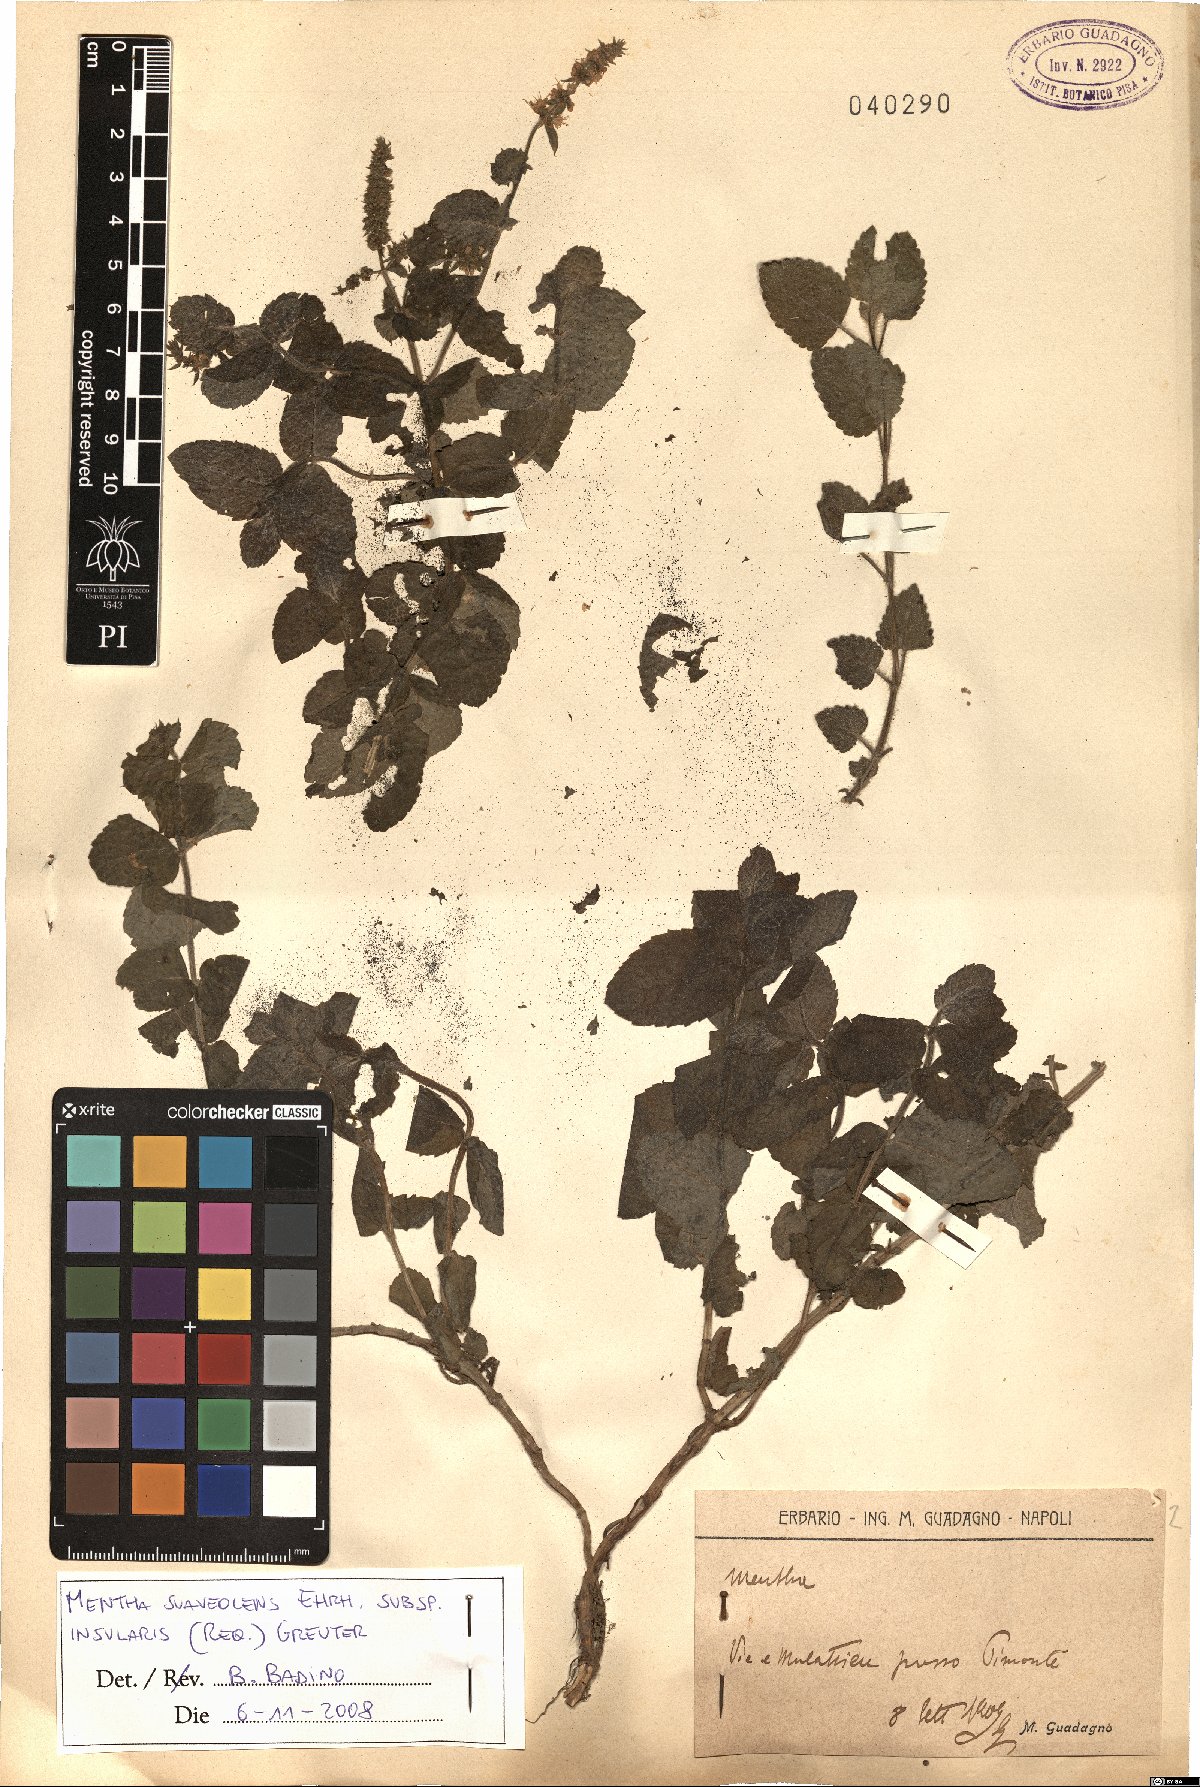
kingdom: Plantae
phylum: Tracheophyta
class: Magnoliopsida
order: Lamiales
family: Lamiaceae
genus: Mentha
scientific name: Mentha suaveolens
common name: Apple mint
